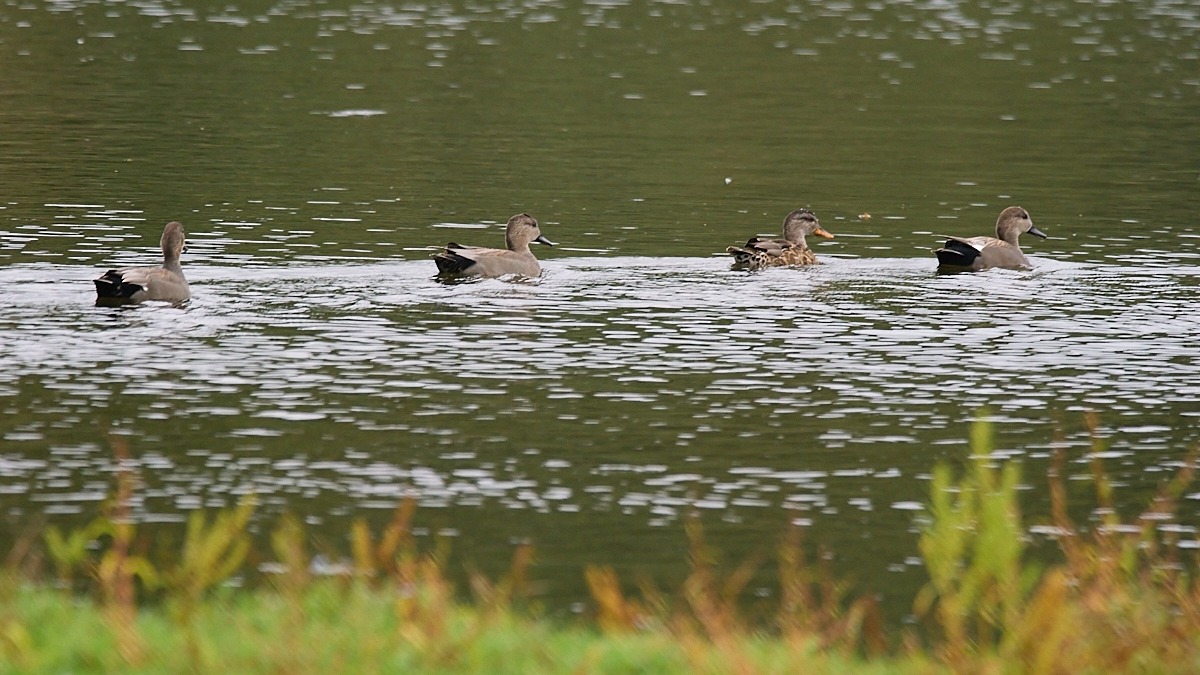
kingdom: Animalia
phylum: Chordata
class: Aves
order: Anseriformes
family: Anatidae
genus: Mareca
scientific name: Mareca strepera
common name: Knarand
